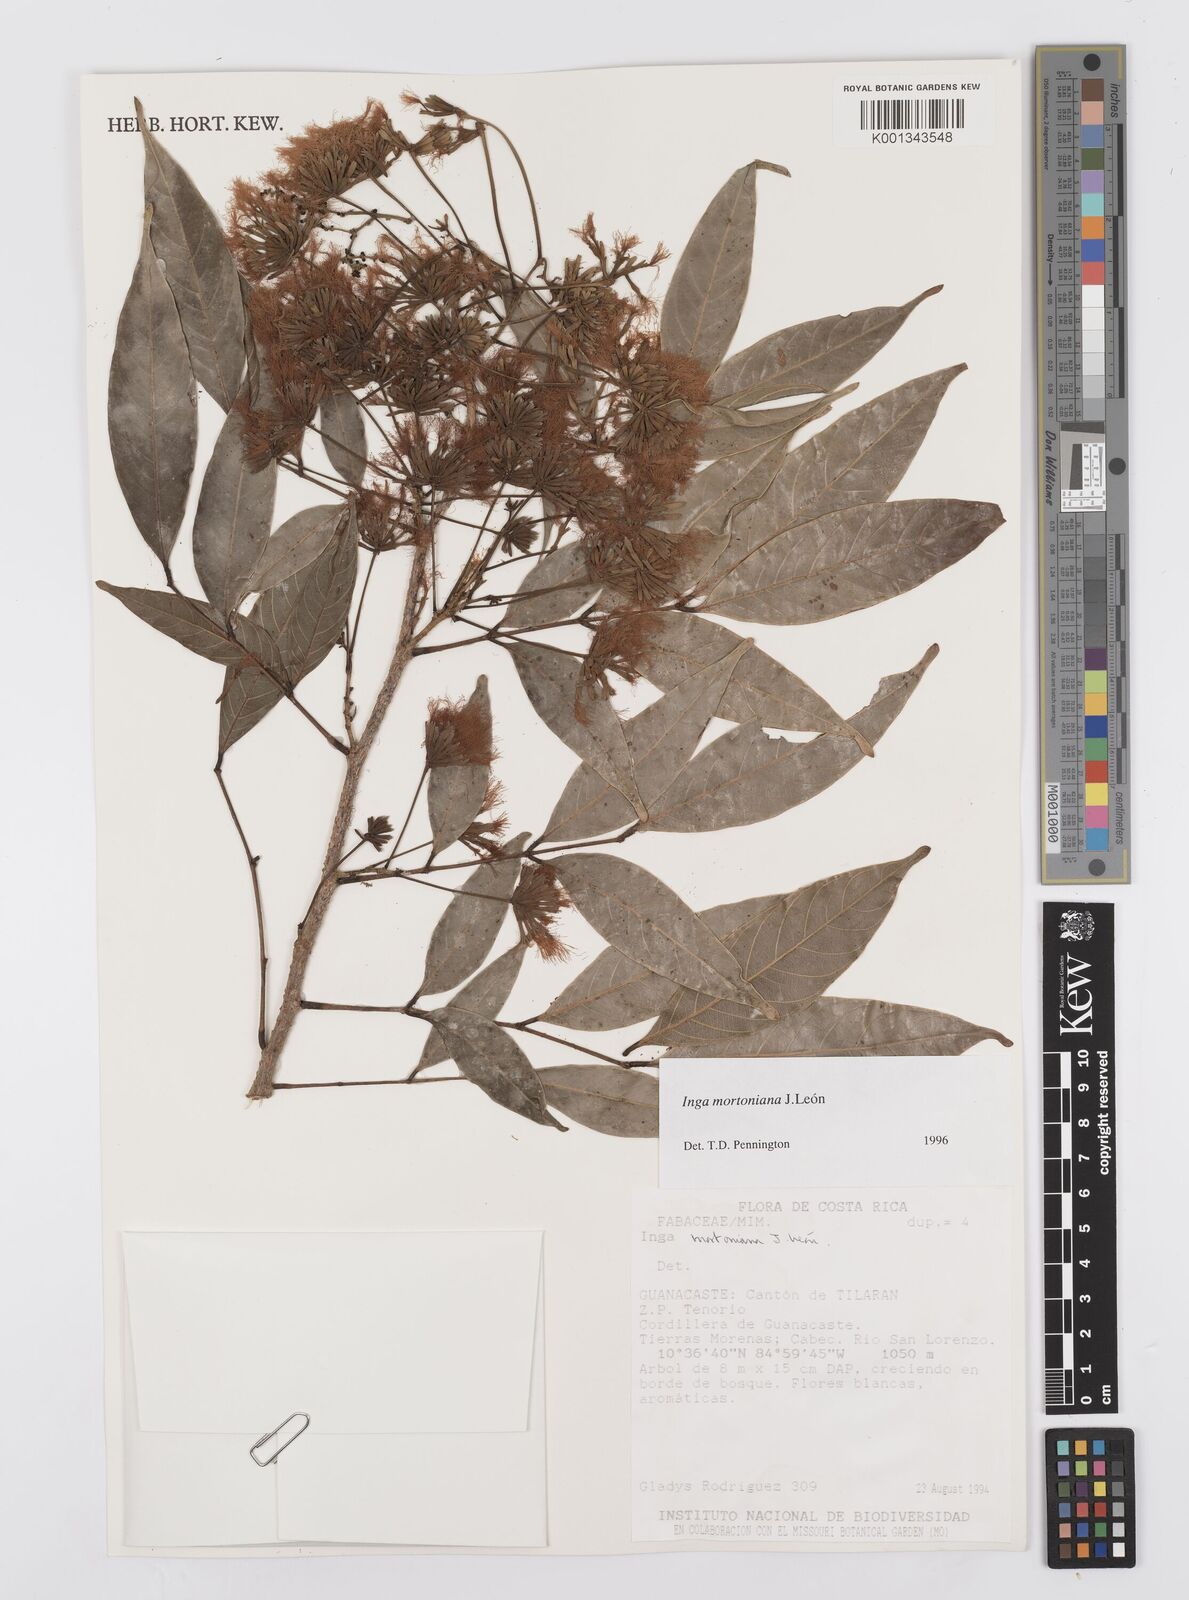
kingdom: Plantae
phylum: Tracheophyta
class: Magnoliopsida
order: Fabales
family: Fabaceae
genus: Inga
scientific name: Inga
